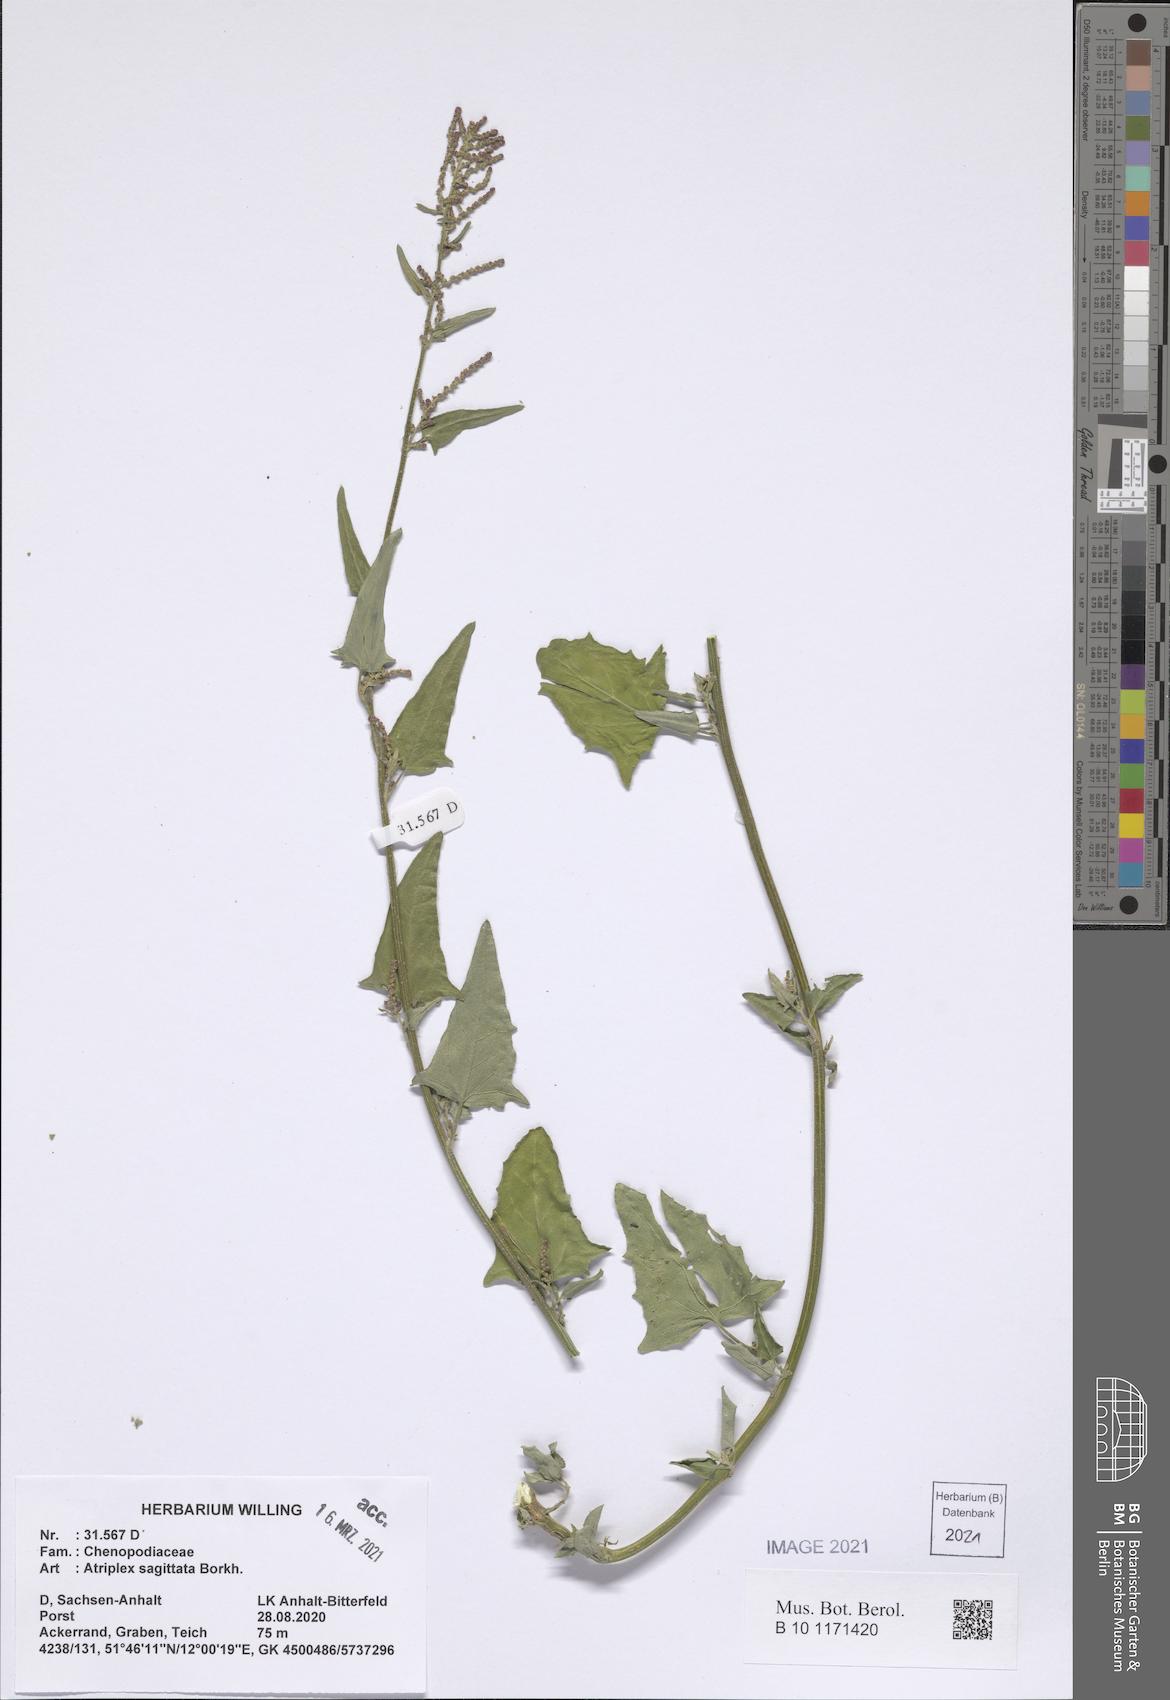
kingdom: Plantae
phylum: Tracheophyta
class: Magnoliopsida
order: Caryophyllales
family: Amaranthaceae
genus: Atriplex
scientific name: Atriplex sagittata
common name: Purple orache
